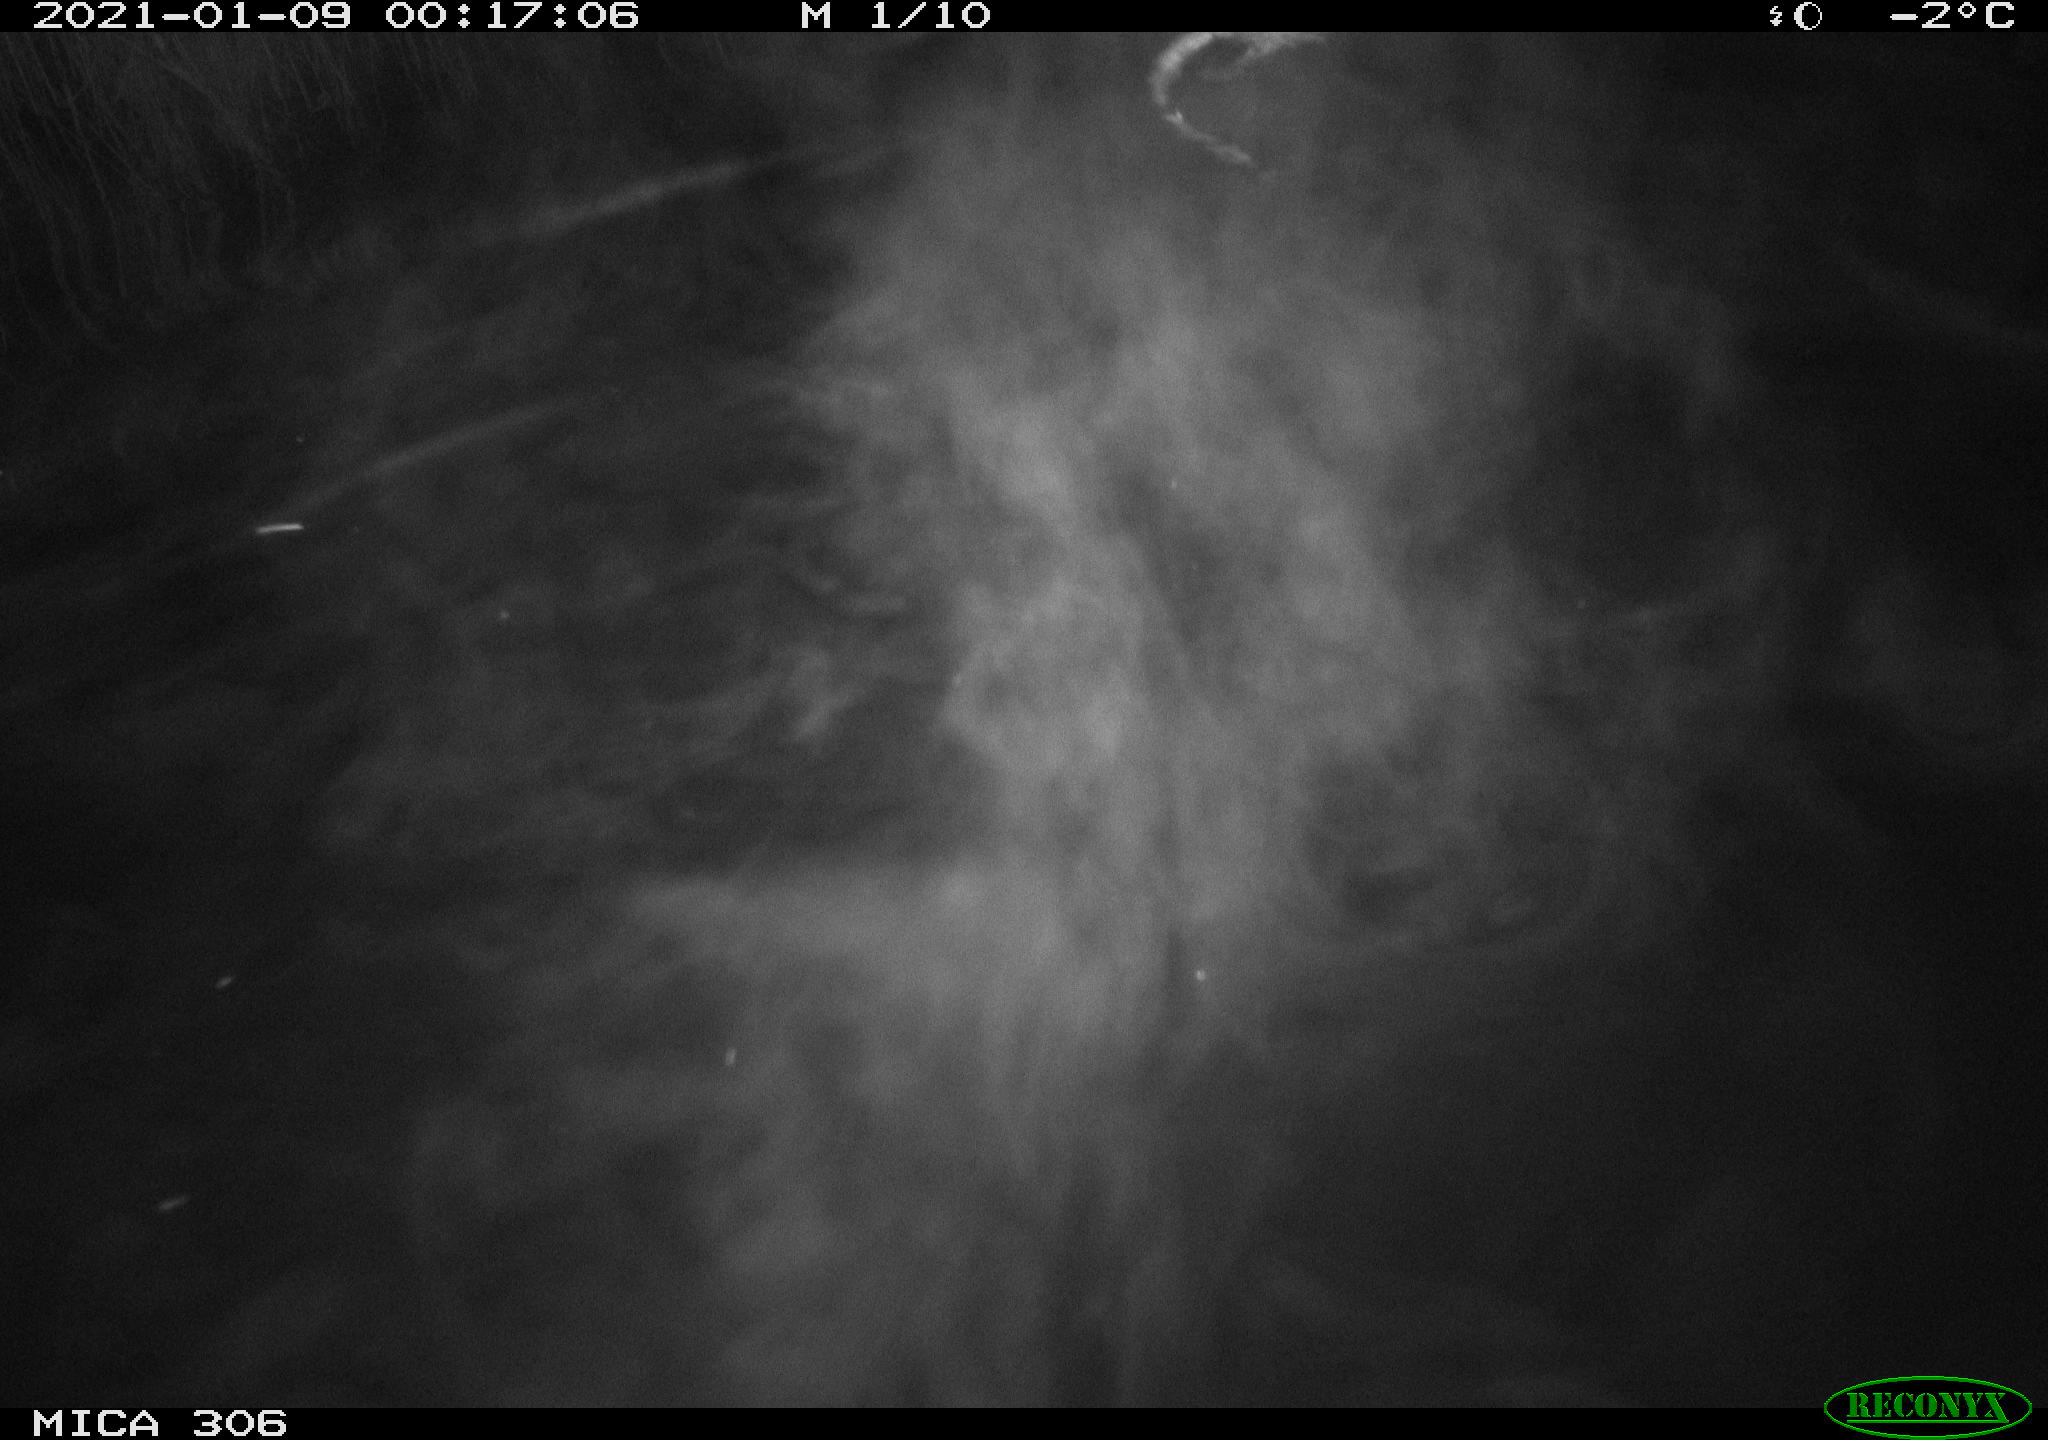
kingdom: Animalia
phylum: Chordata
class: Mammalia
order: Rodentia
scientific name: Rodentia
